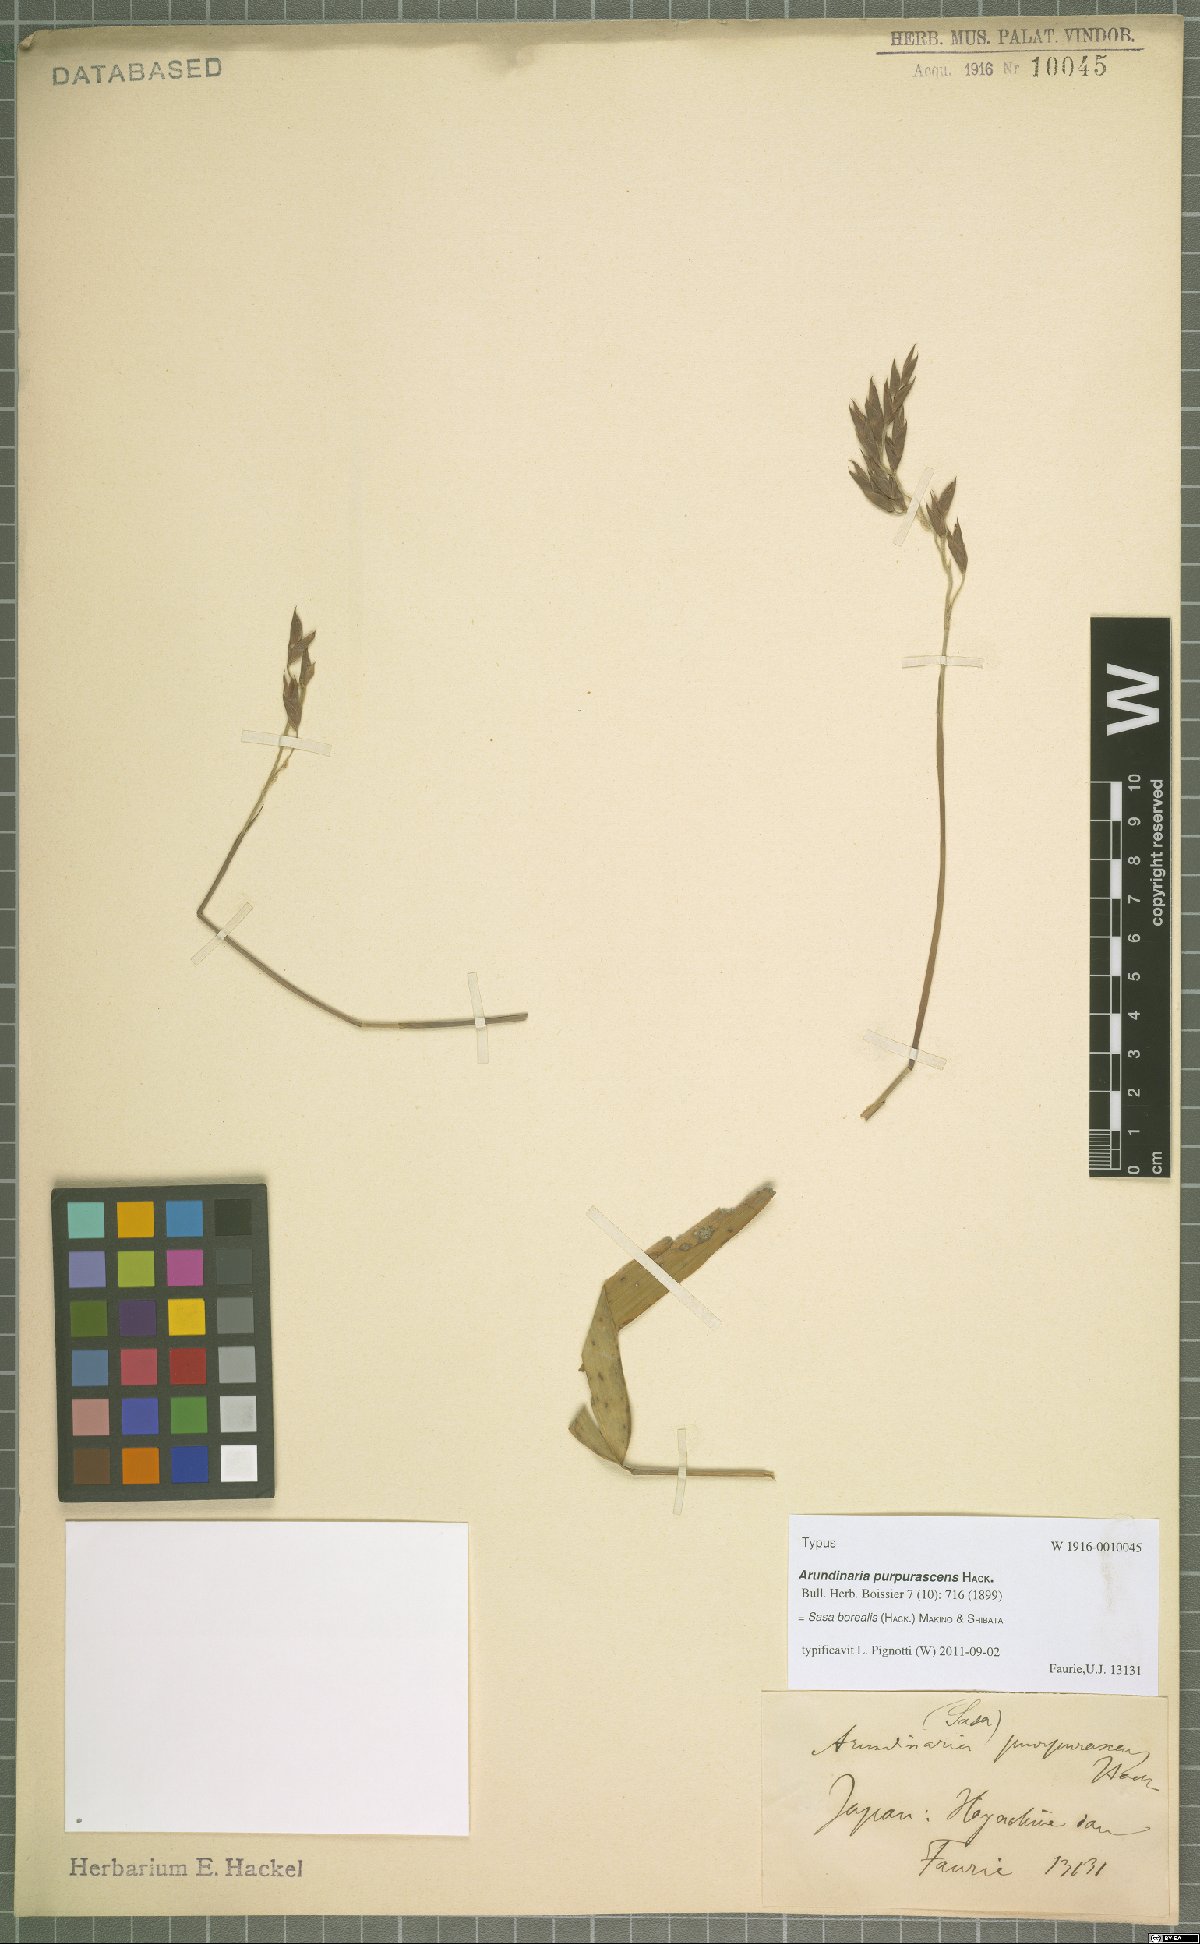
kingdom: Plantae
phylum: Tracheophyta
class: Liliopsida
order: Poales
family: Poaceae
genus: Sasamorpha
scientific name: Sasamorpha borealis
